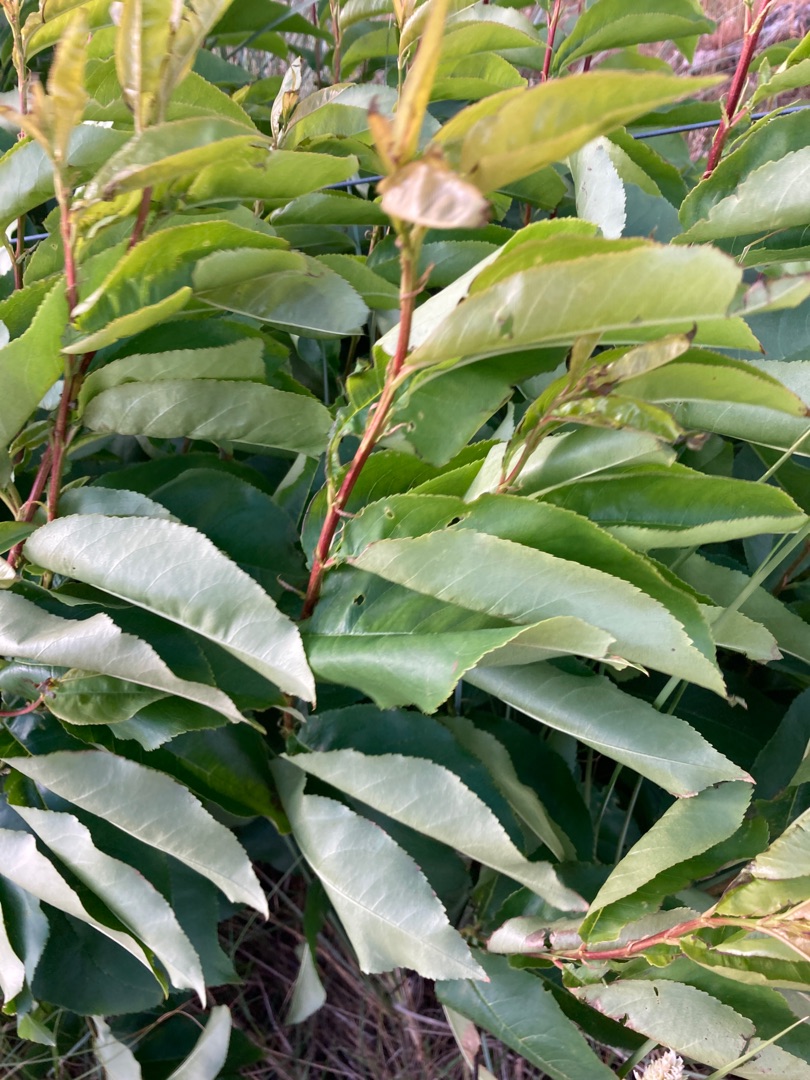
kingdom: Plantae
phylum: Tracheophyta
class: Magnoliopsida
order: Rosales
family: Rosaceae
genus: Prunus
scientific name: Prunus serotina
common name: Glansbladet hæg
